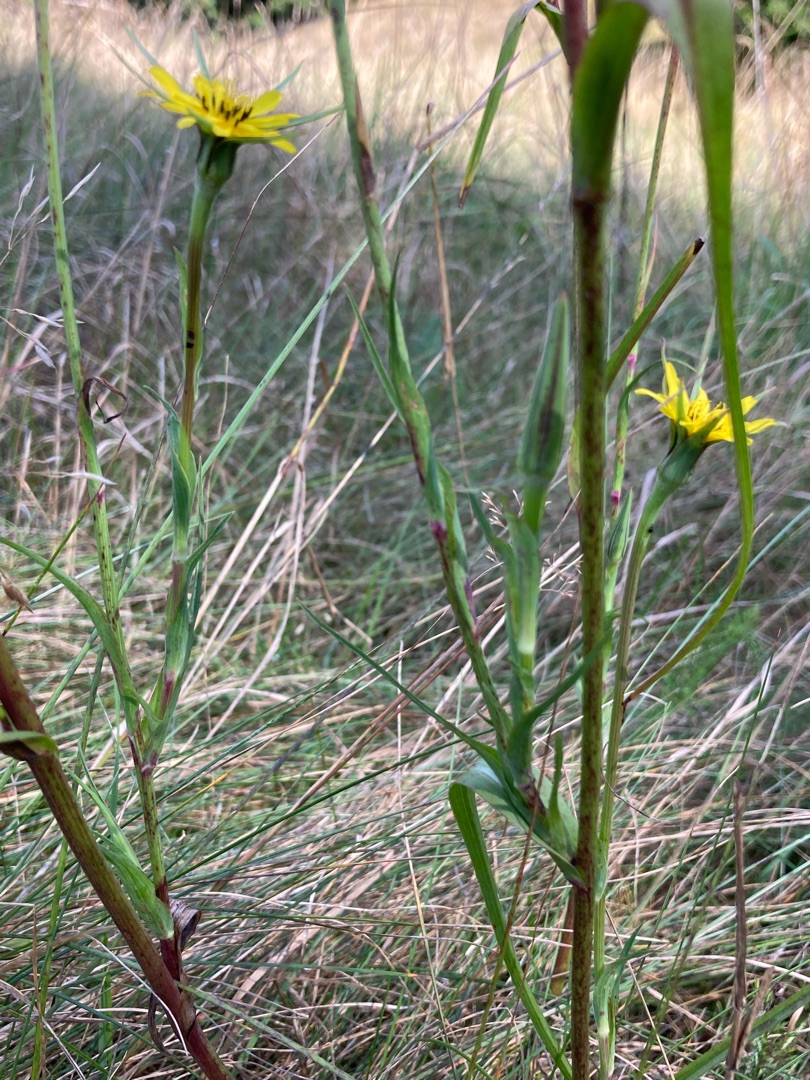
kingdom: Plantae
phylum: Tracheophyta
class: Magnoliopsida
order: Asterales
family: Asteraceae
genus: Tragopogon
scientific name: Tragopogon minor
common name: Småkronet gedeskæg
